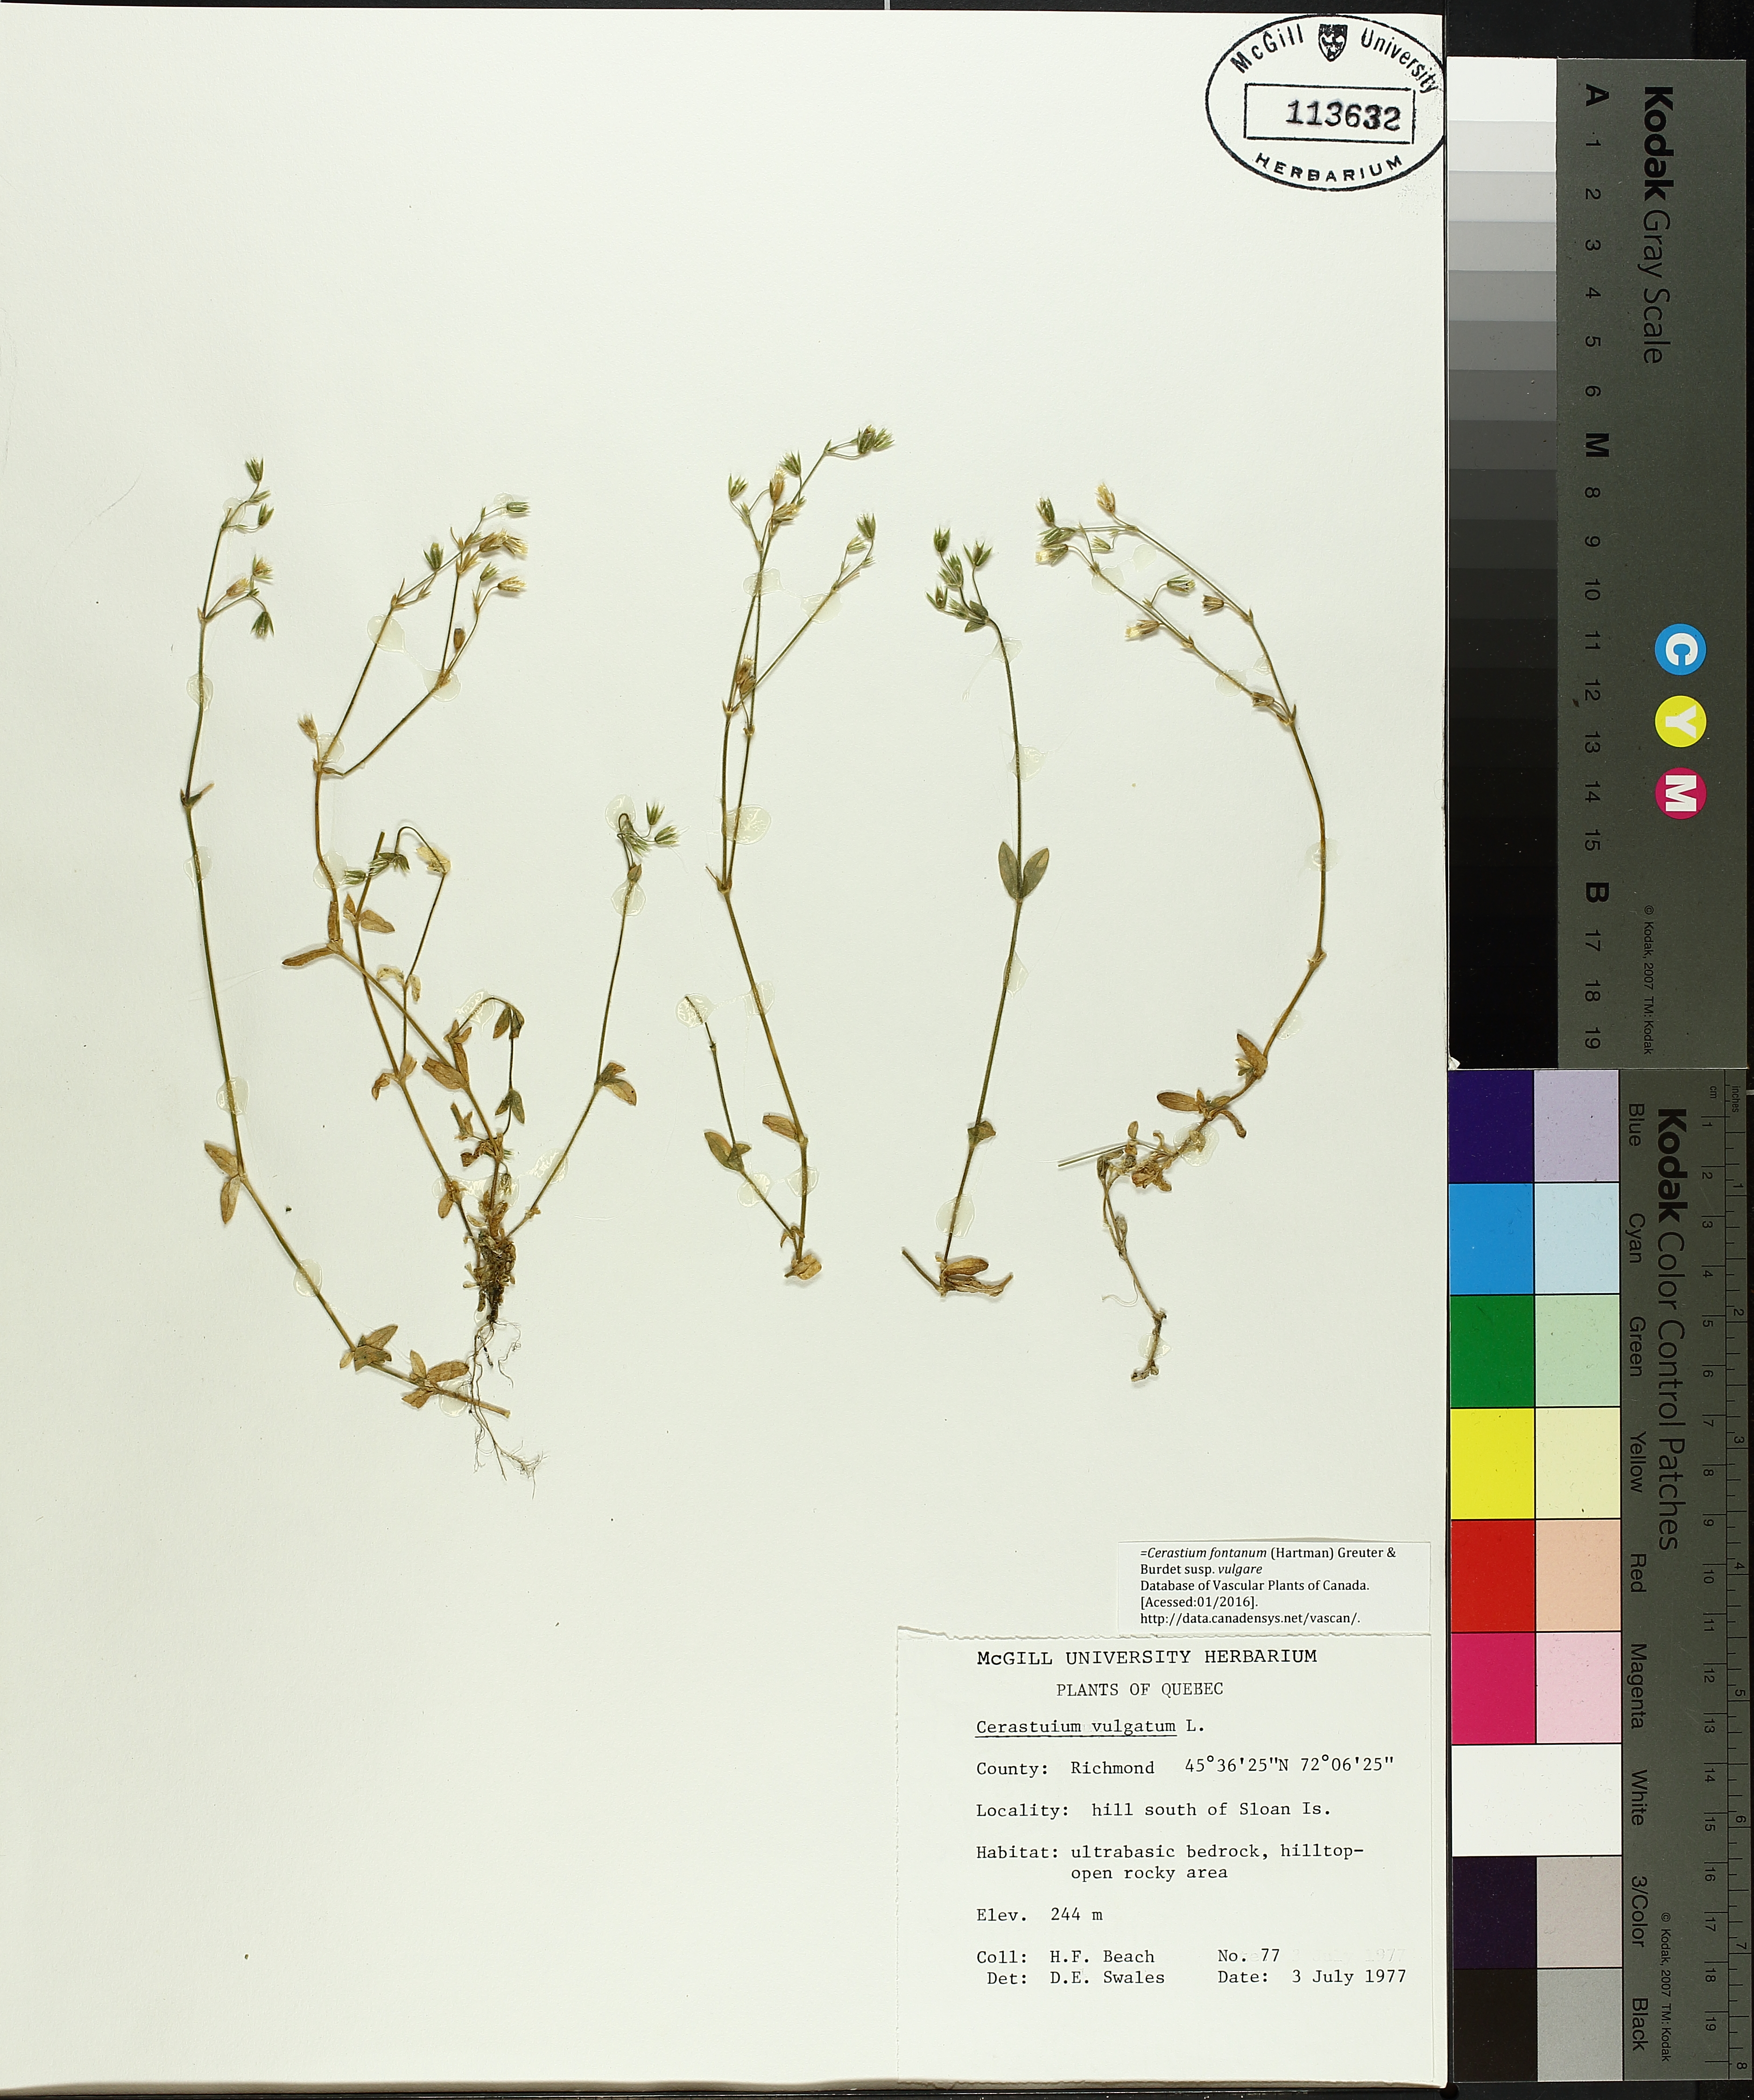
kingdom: Plantae
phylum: Tracheophyta
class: Liliopsida
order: Poales
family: Cyperaceae
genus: Rhynchospora
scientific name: Rhynchospora fusca
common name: Brown beak-sedge
